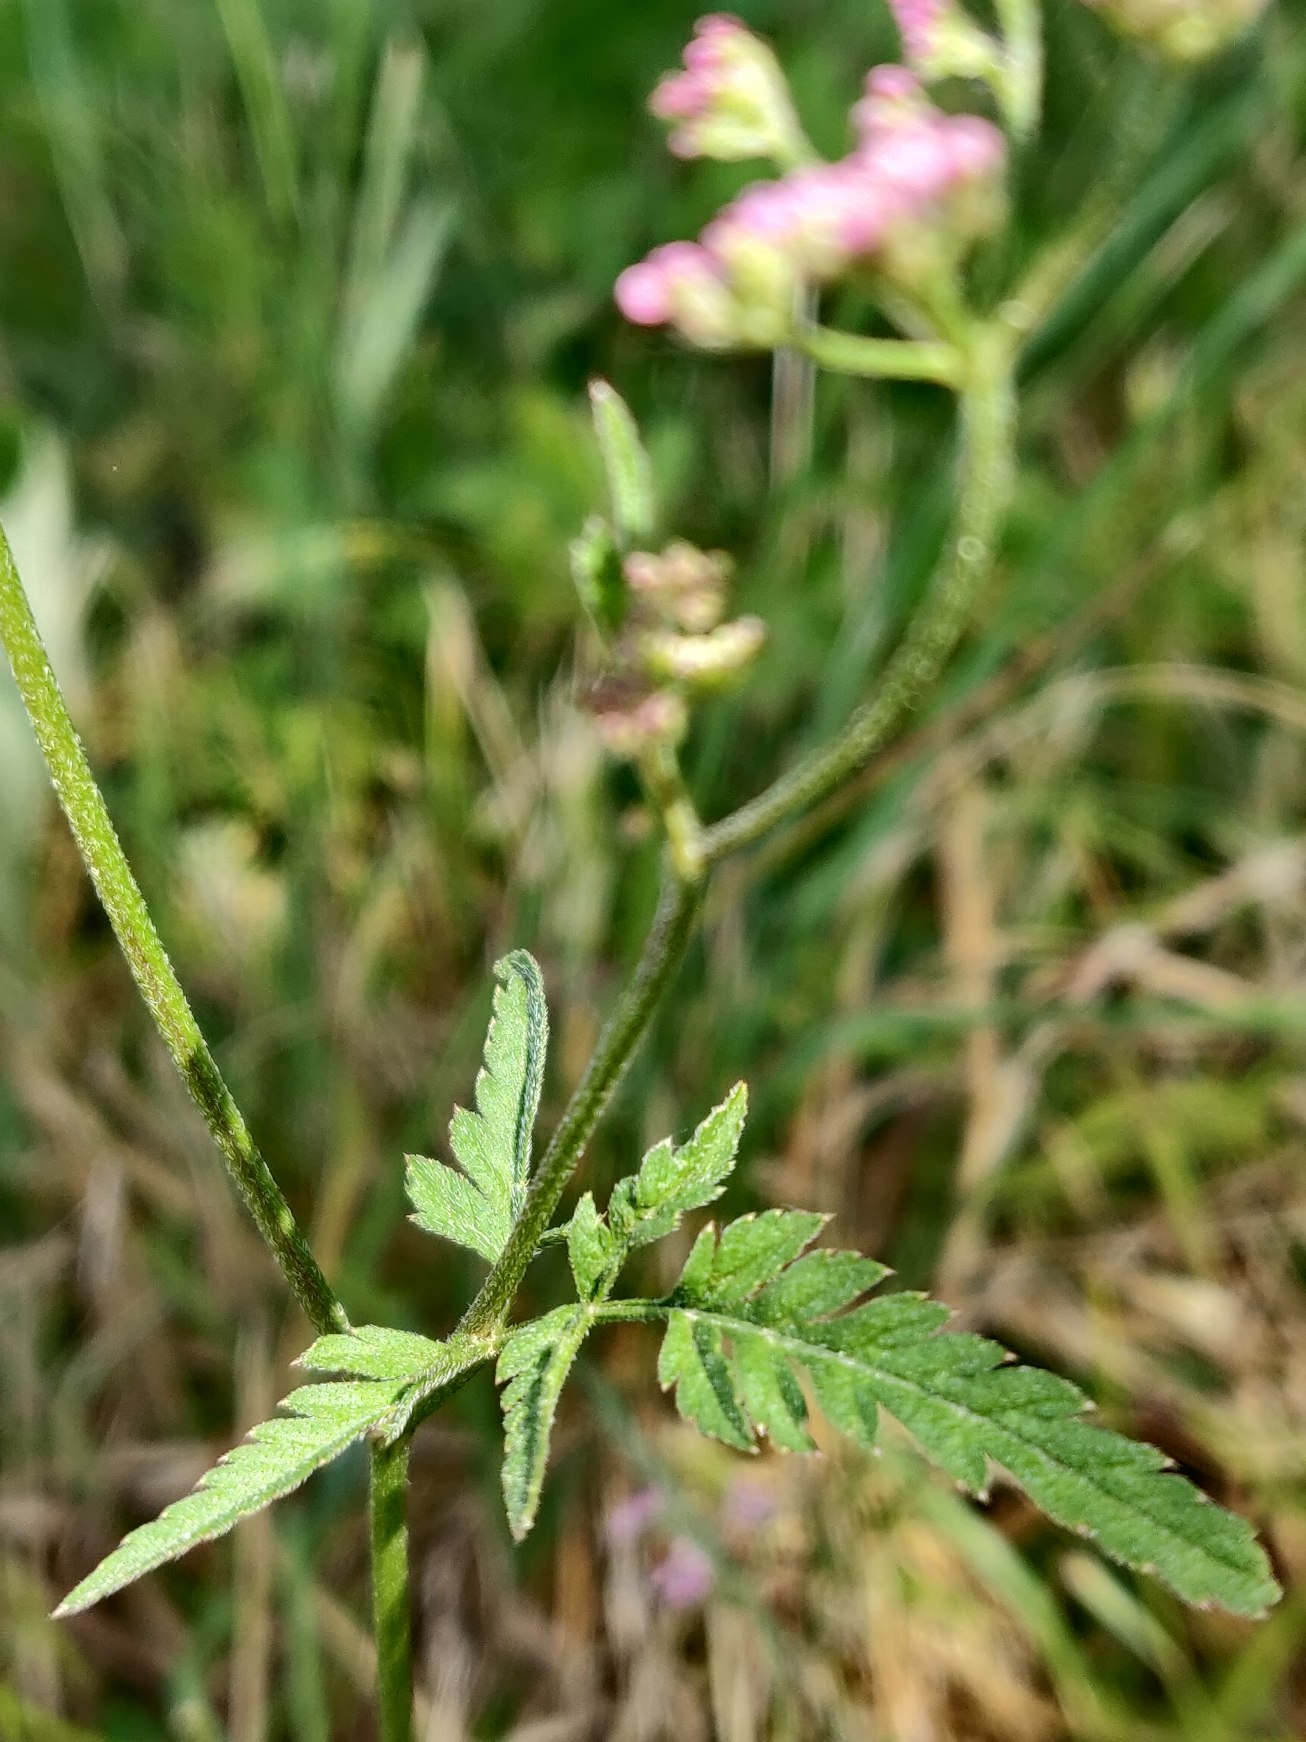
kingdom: Plantae
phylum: Tracheophyta
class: Magnoliopsida
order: Apiales
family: Apiaceae
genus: Torilis
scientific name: Torilis japonica
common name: Hvas randfrø
